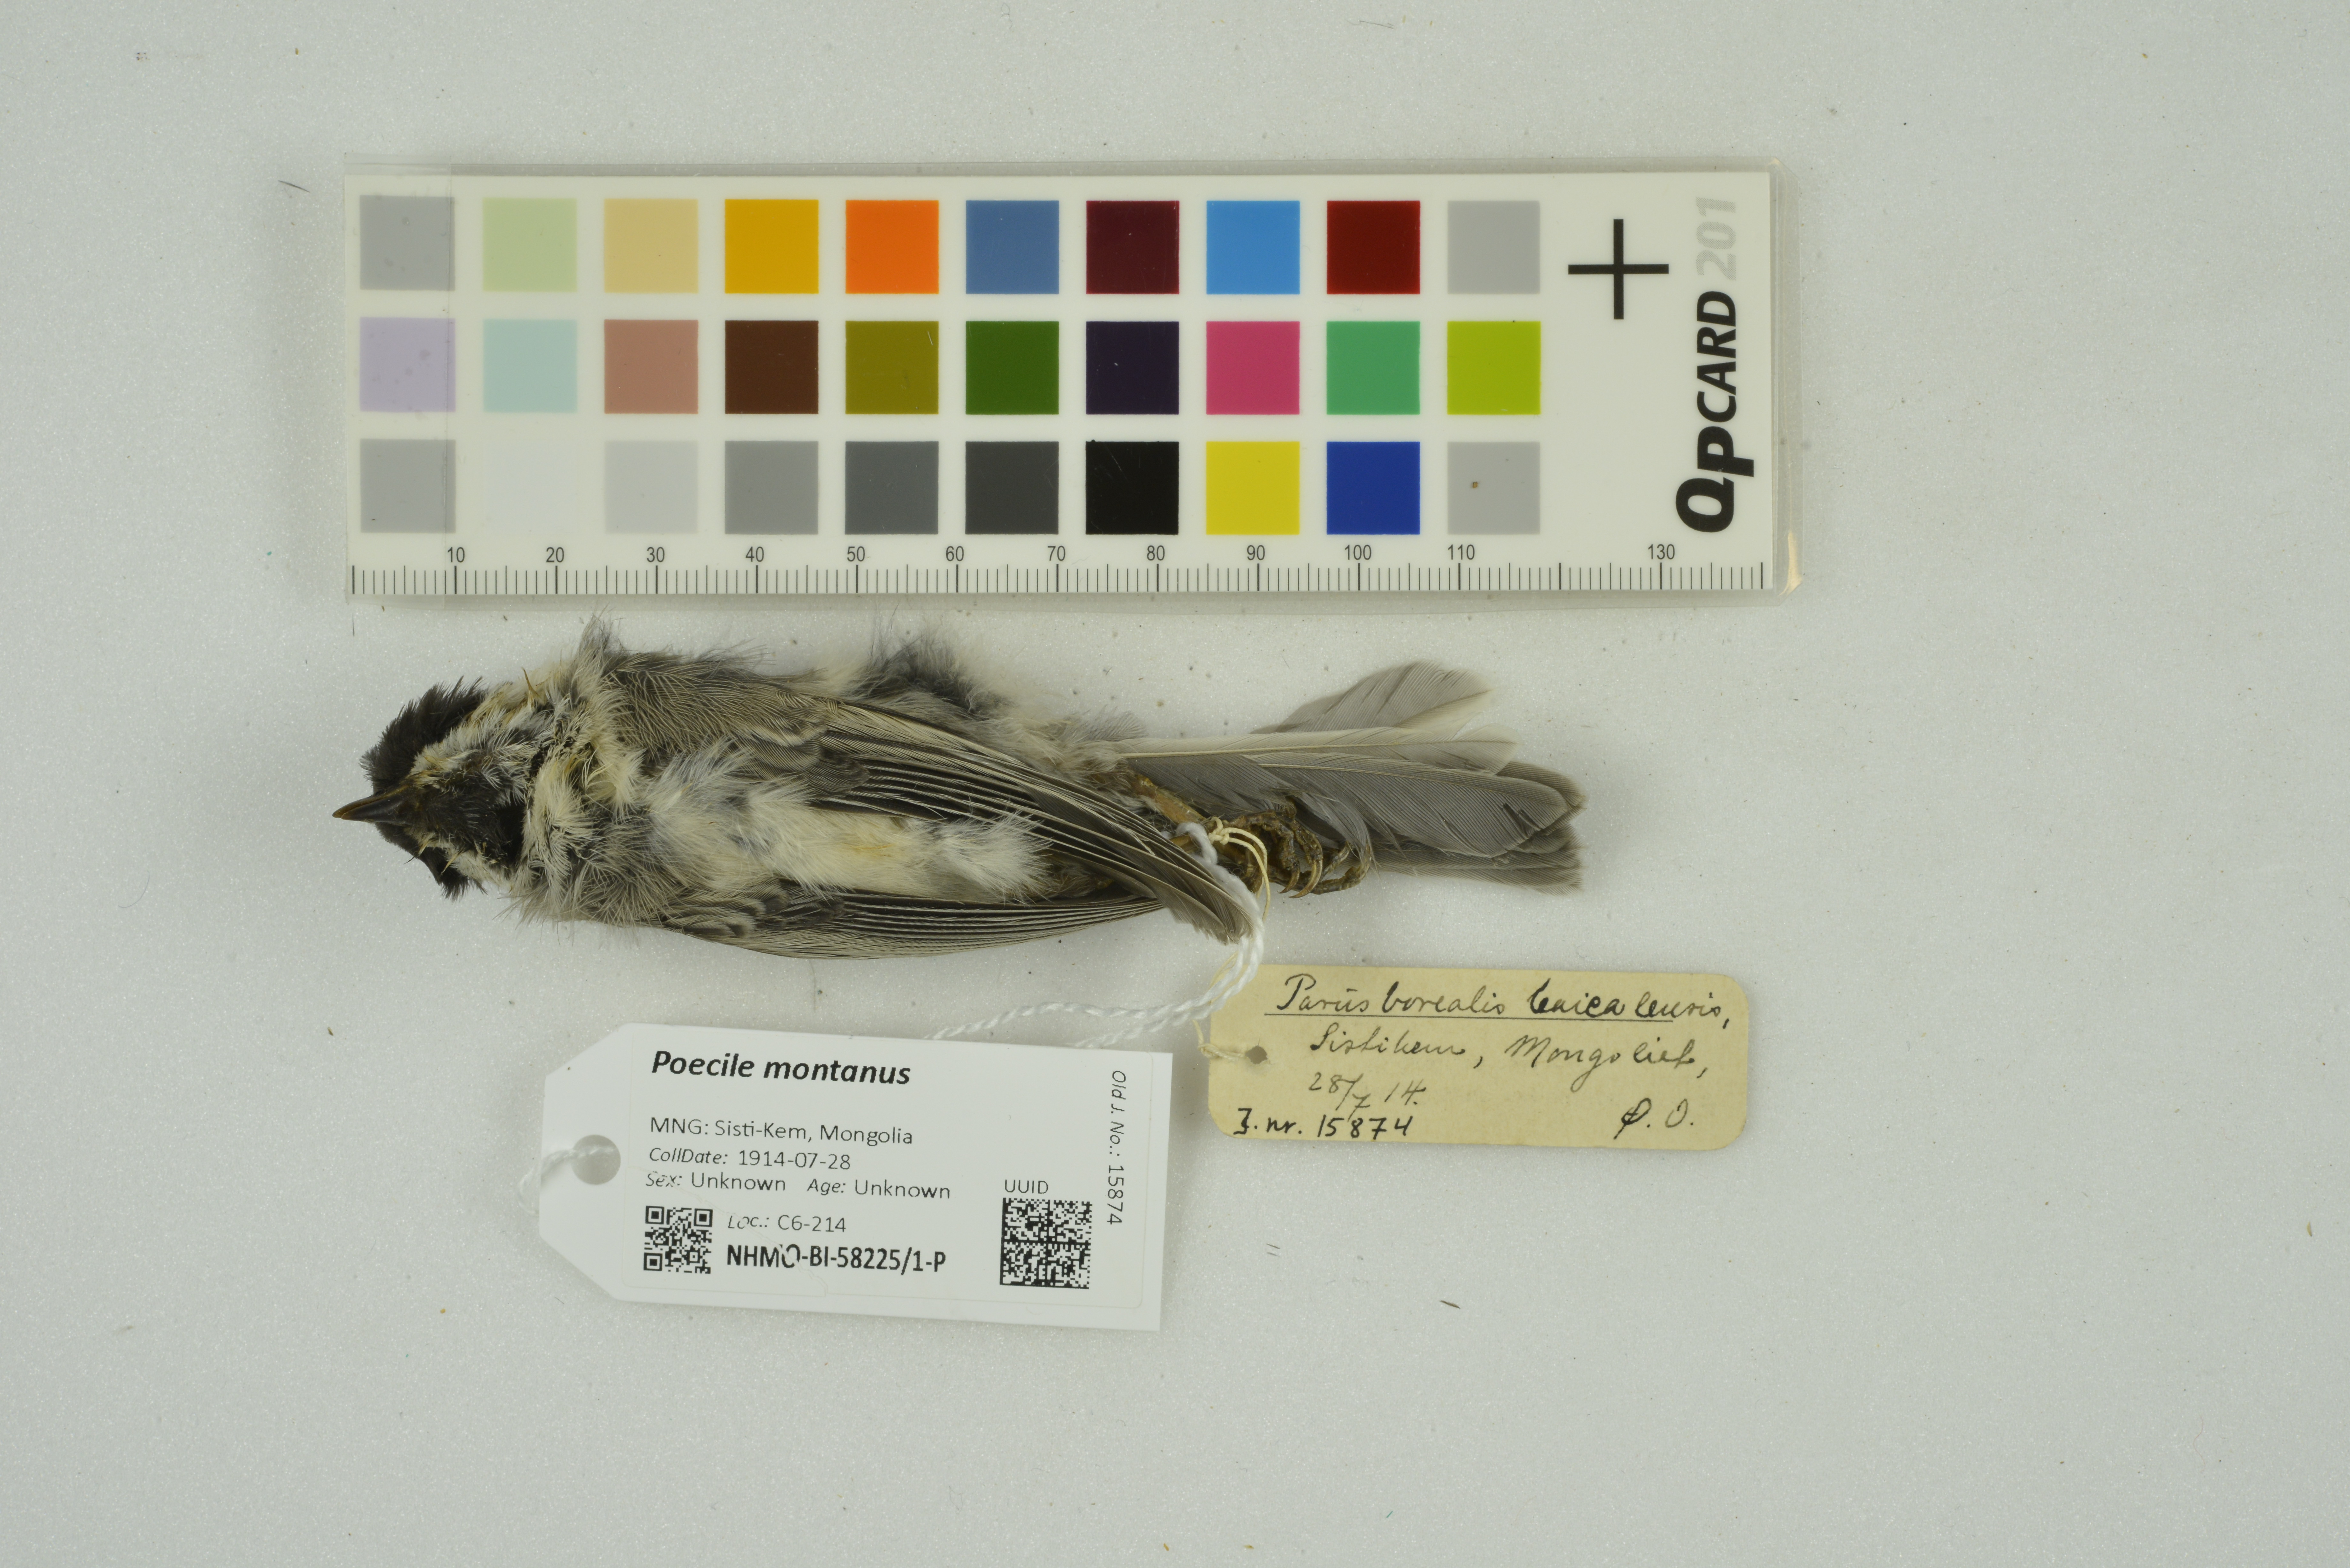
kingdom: Animalia
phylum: Chordata
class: Aves
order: Passeriformes
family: Paridae
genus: Poecile
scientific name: Poecile montanus
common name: Willow tit
